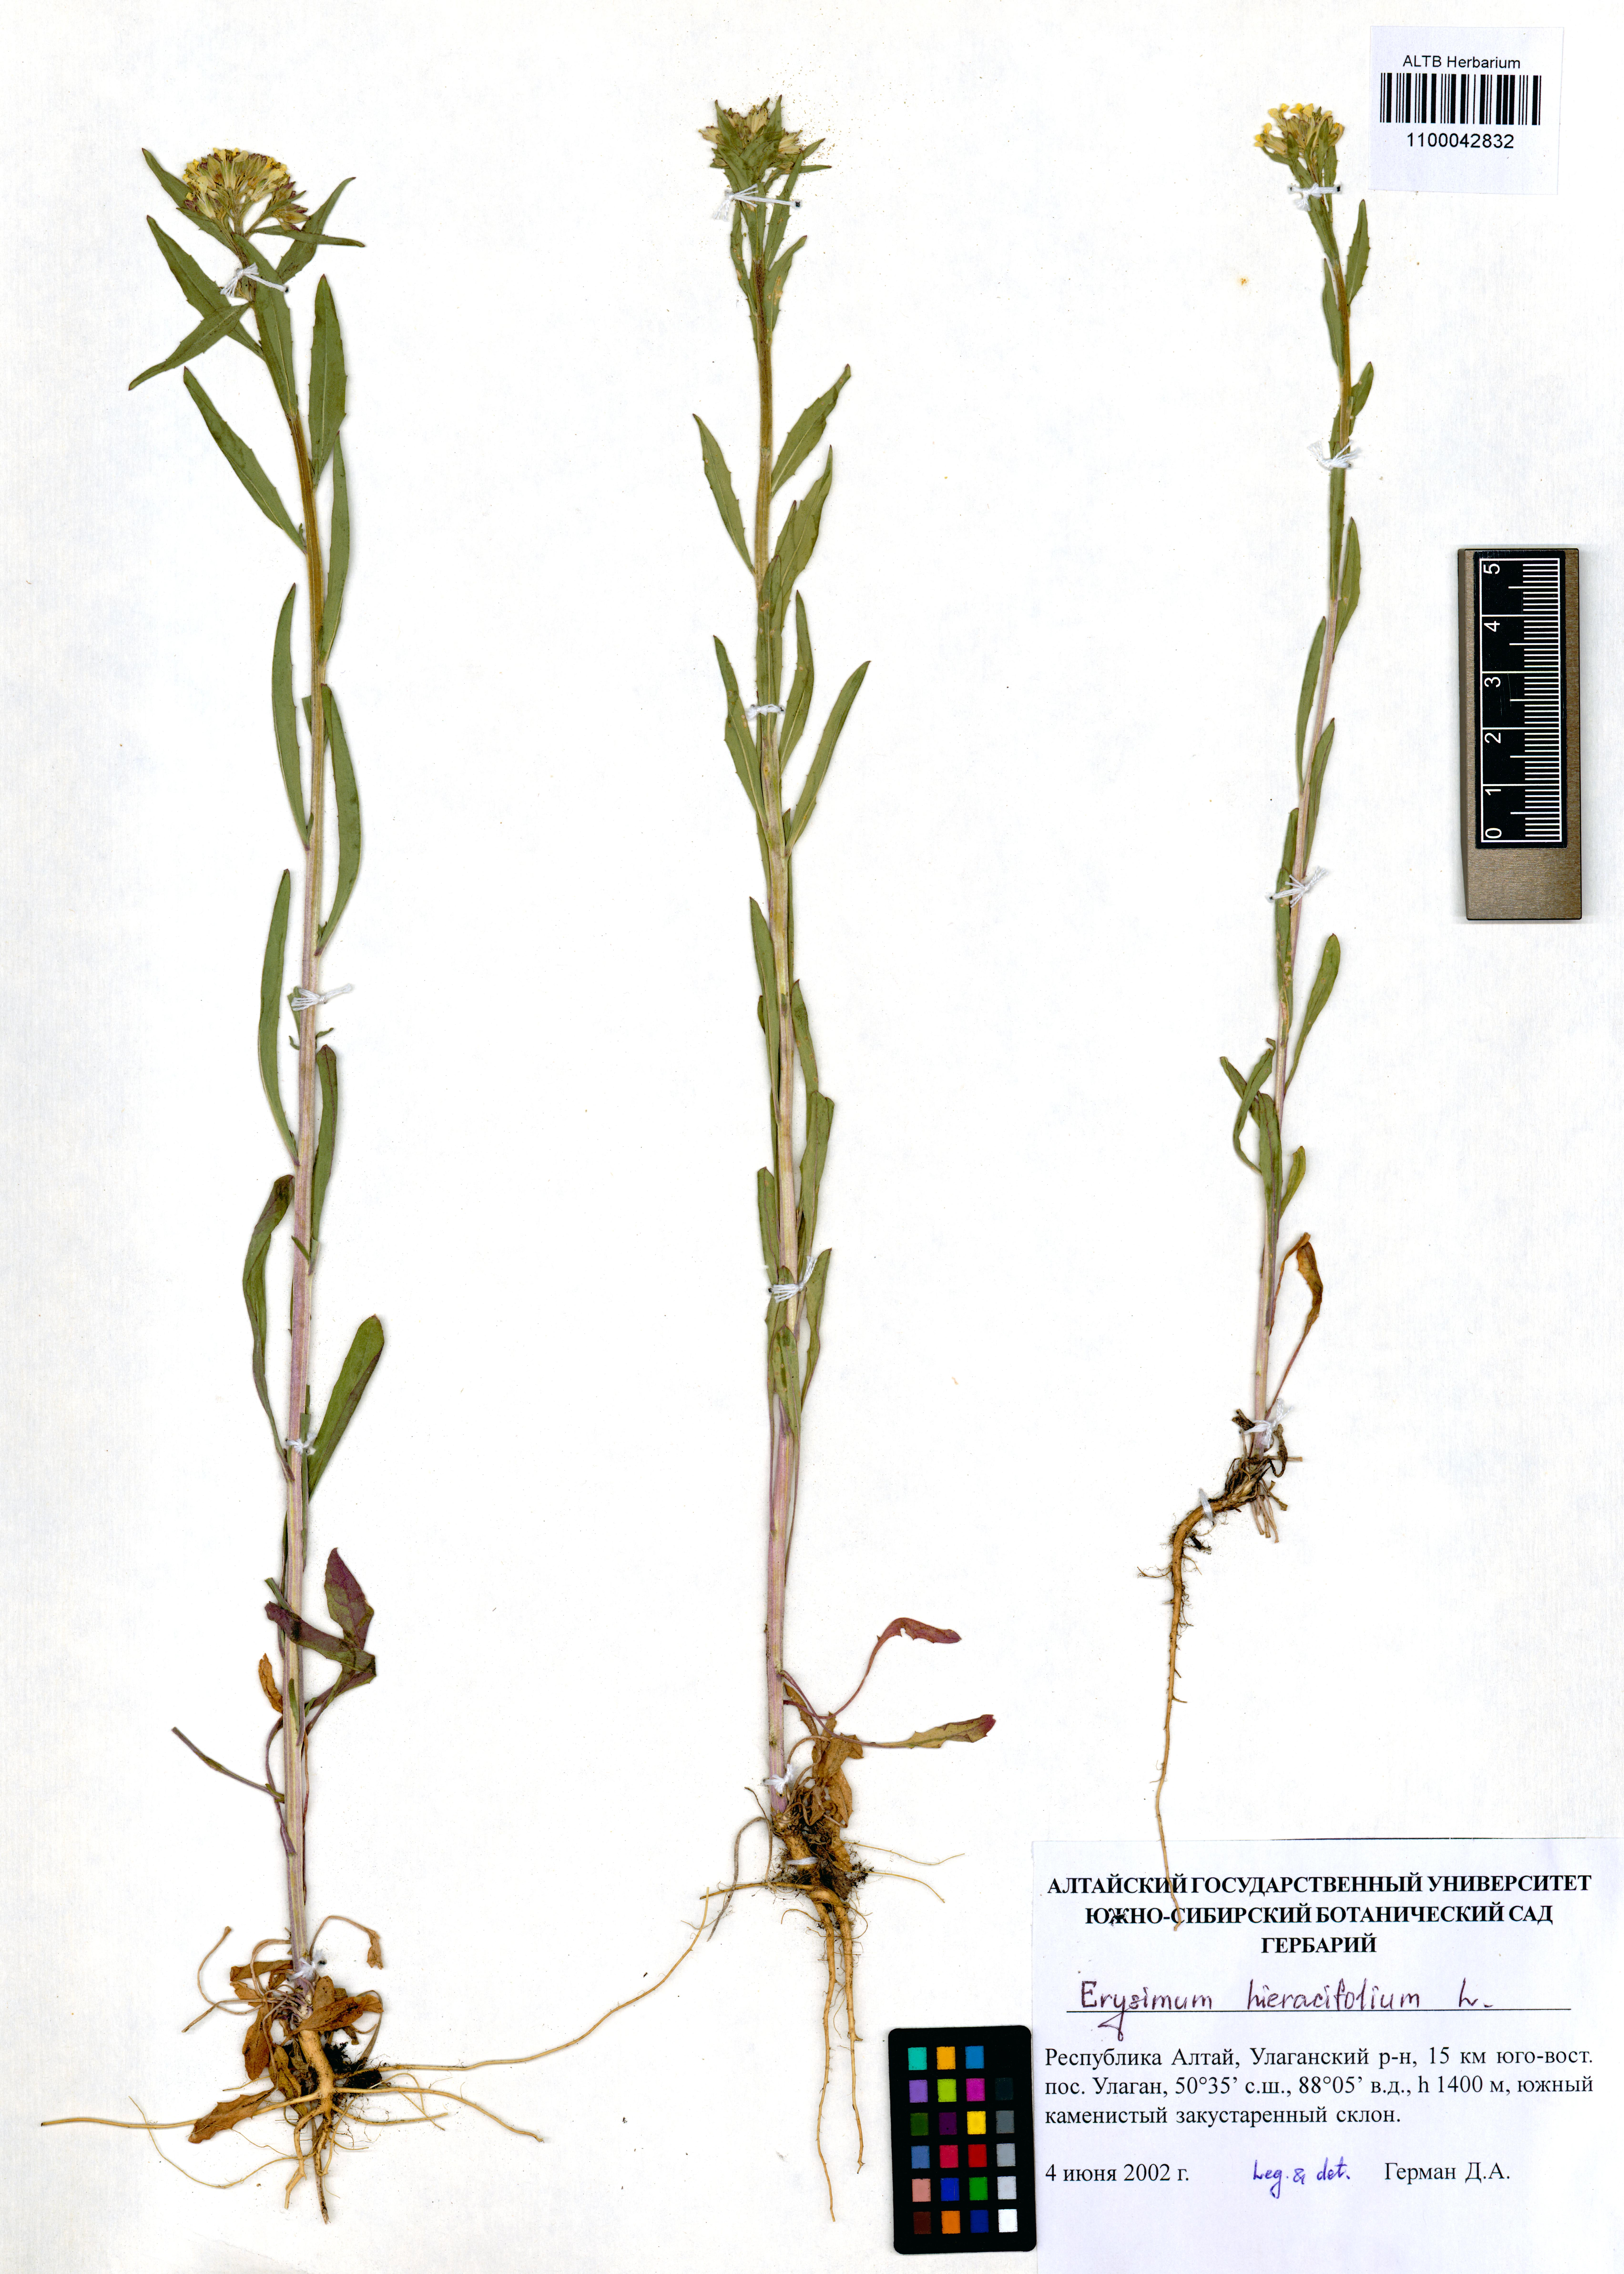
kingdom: Plantae
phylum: Tracheophyta
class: Magnoliopsida
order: Brassicales
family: Brassicaceae
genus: Erysimum
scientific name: Erysimum hieraciifolium
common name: European wallflower
